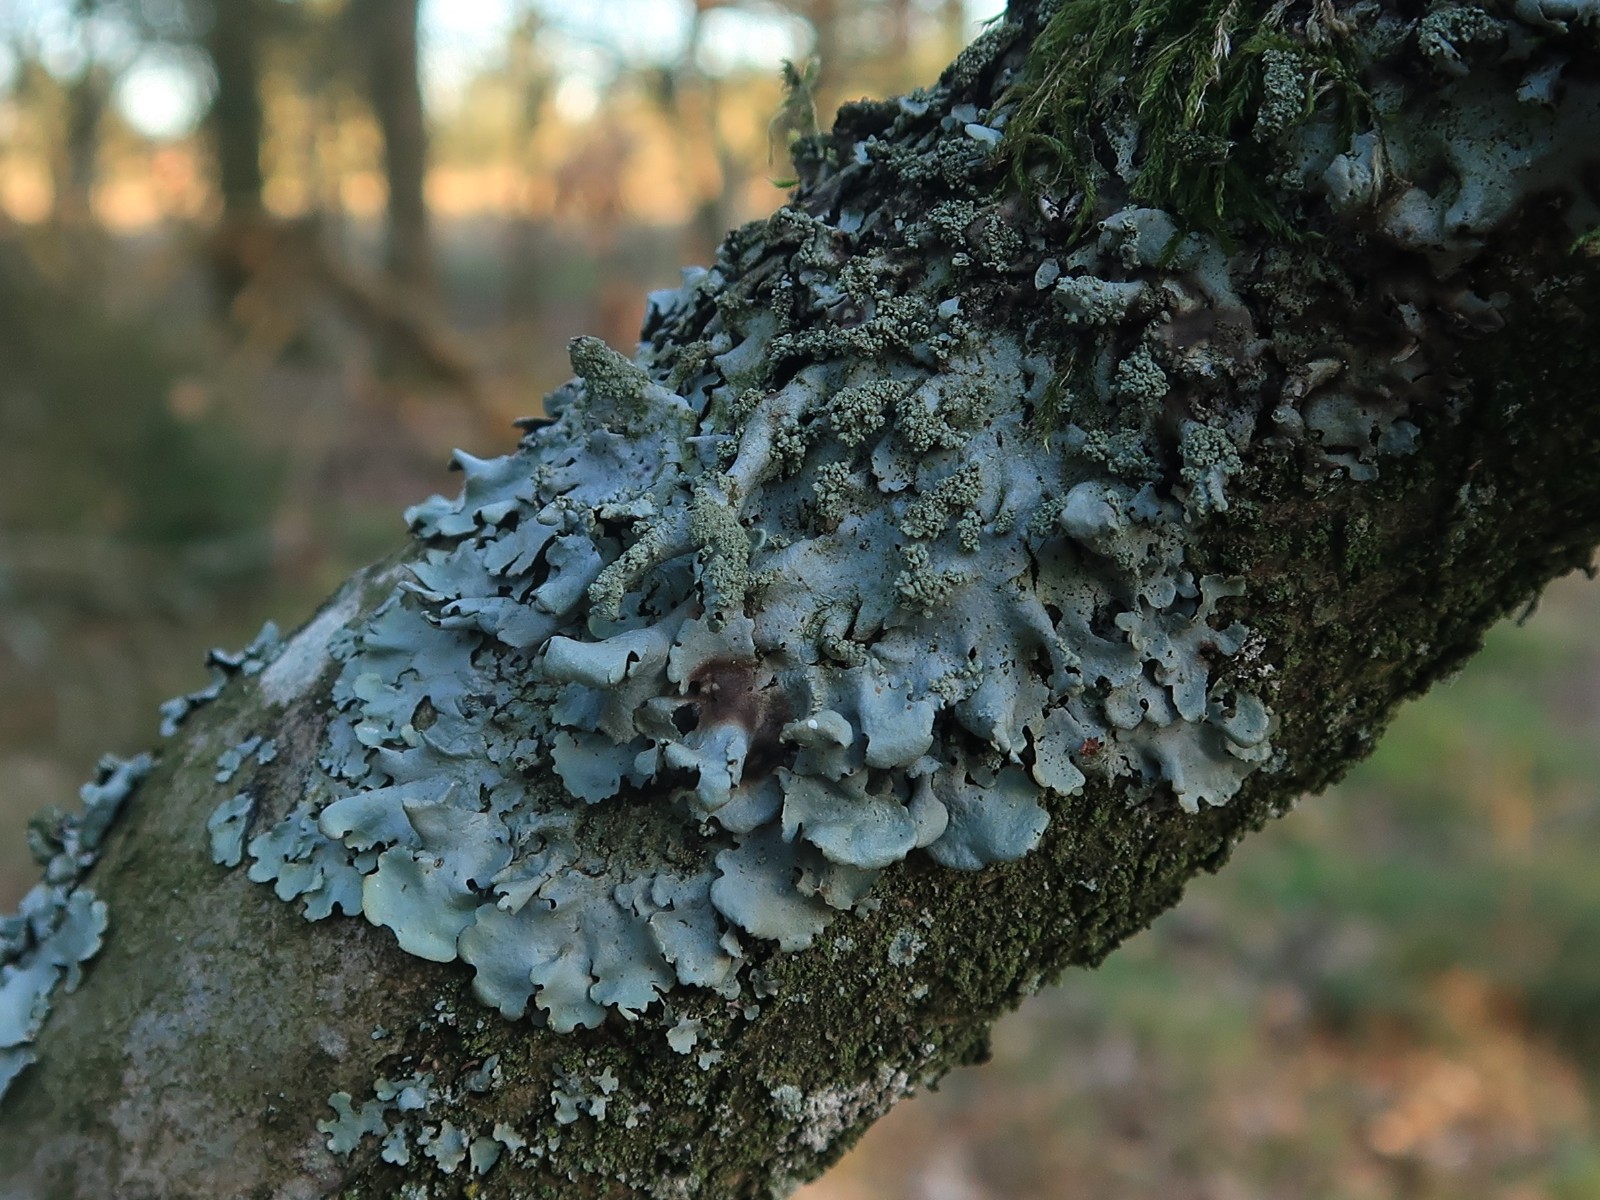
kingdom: Fungi
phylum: Ascomycota
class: Lecanoromycetes
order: Lecanorales
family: Parmeliaceae
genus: Hypotrachyna
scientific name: Hypotrachyna afrorevoluta
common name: kyst-skållav
